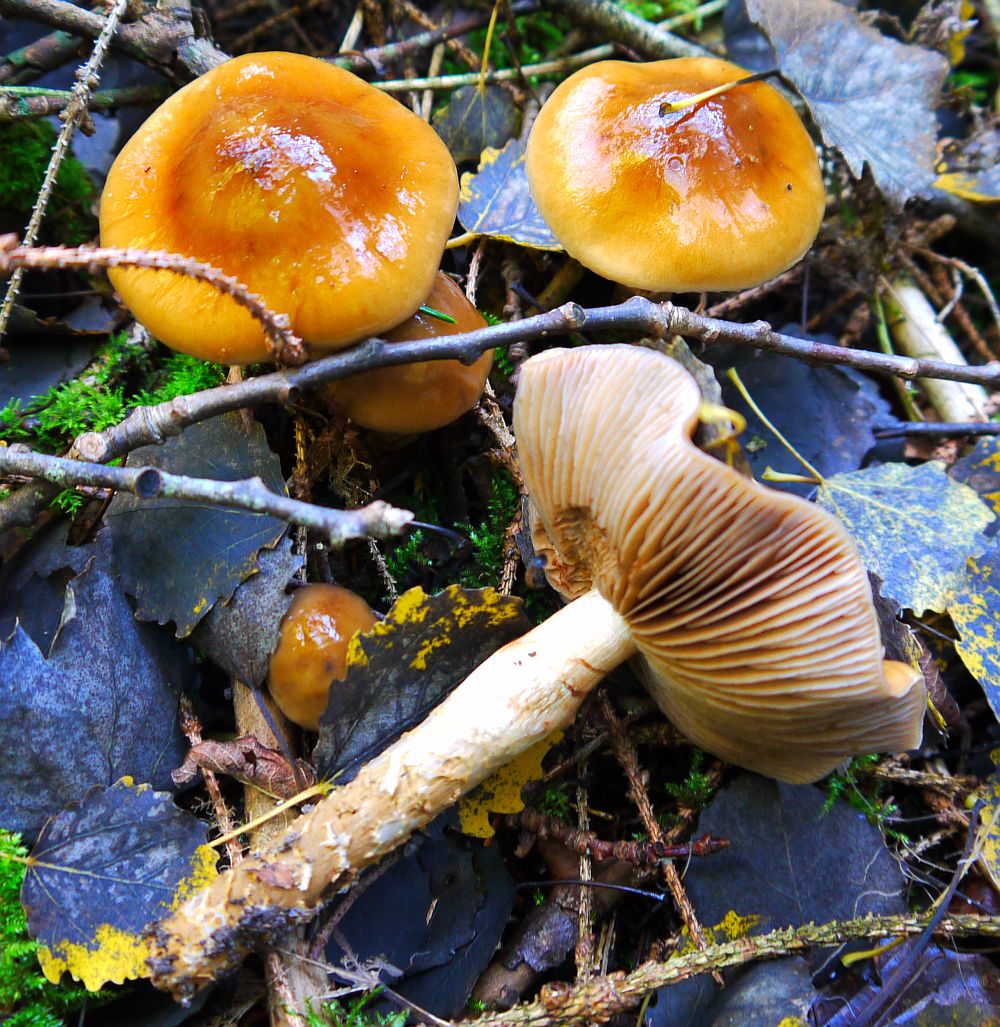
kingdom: Fungi
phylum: Basidiomycota
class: Agaricomycetes
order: Agaricales
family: Cortinariaceae
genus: Cortinarius
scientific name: Cortinarius trivialis
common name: brunslimet slørhat
